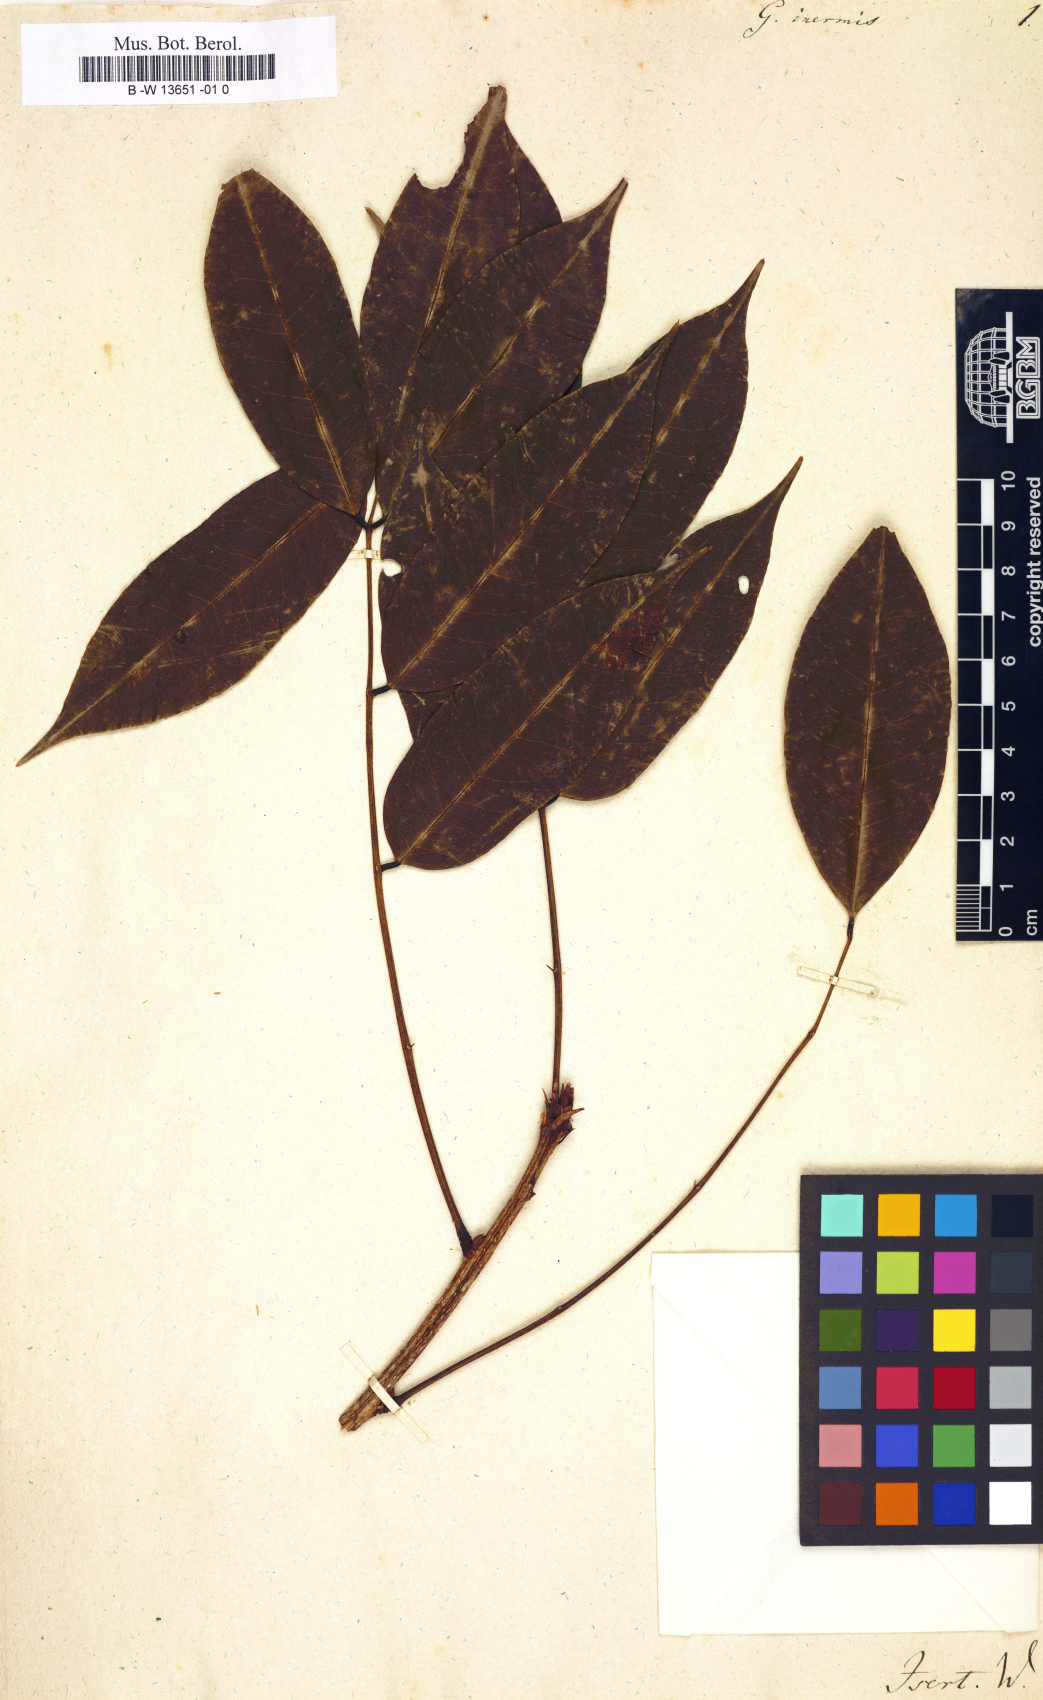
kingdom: Plantae
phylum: Tracheophyta
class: Magnoliopsida
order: Fabales
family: Fabaceae
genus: Andira
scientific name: Andira inermis
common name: Angelin
